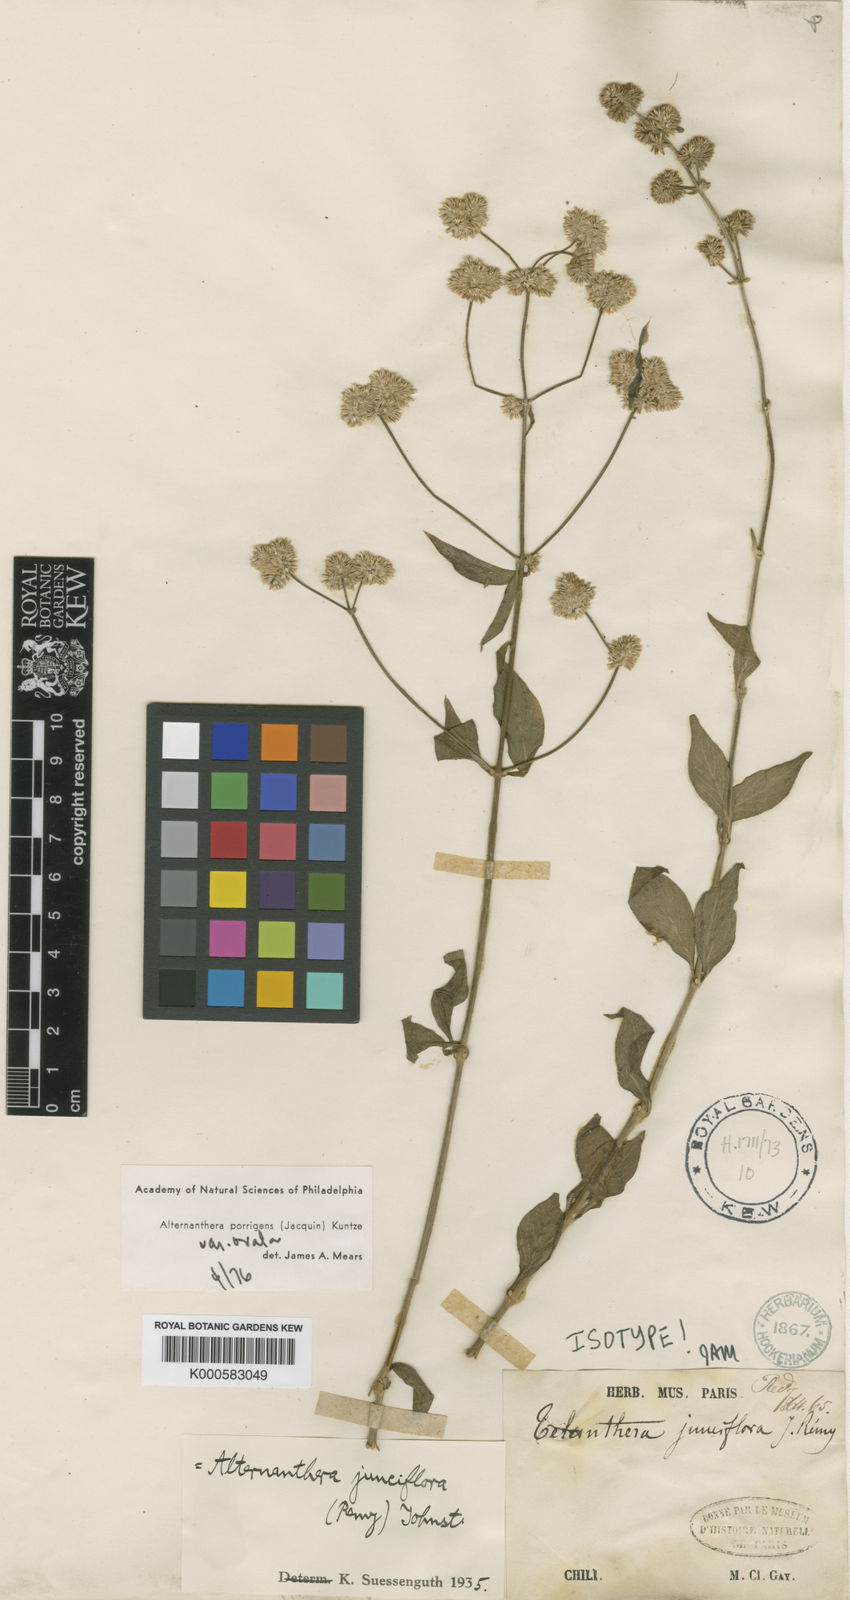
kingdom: Plantae
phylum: Tracheophyta
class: Magnoliopsida
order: Caryophyllales
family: Amaranthaceae
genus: Alternanthera
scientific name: Alternanthera porrigens
